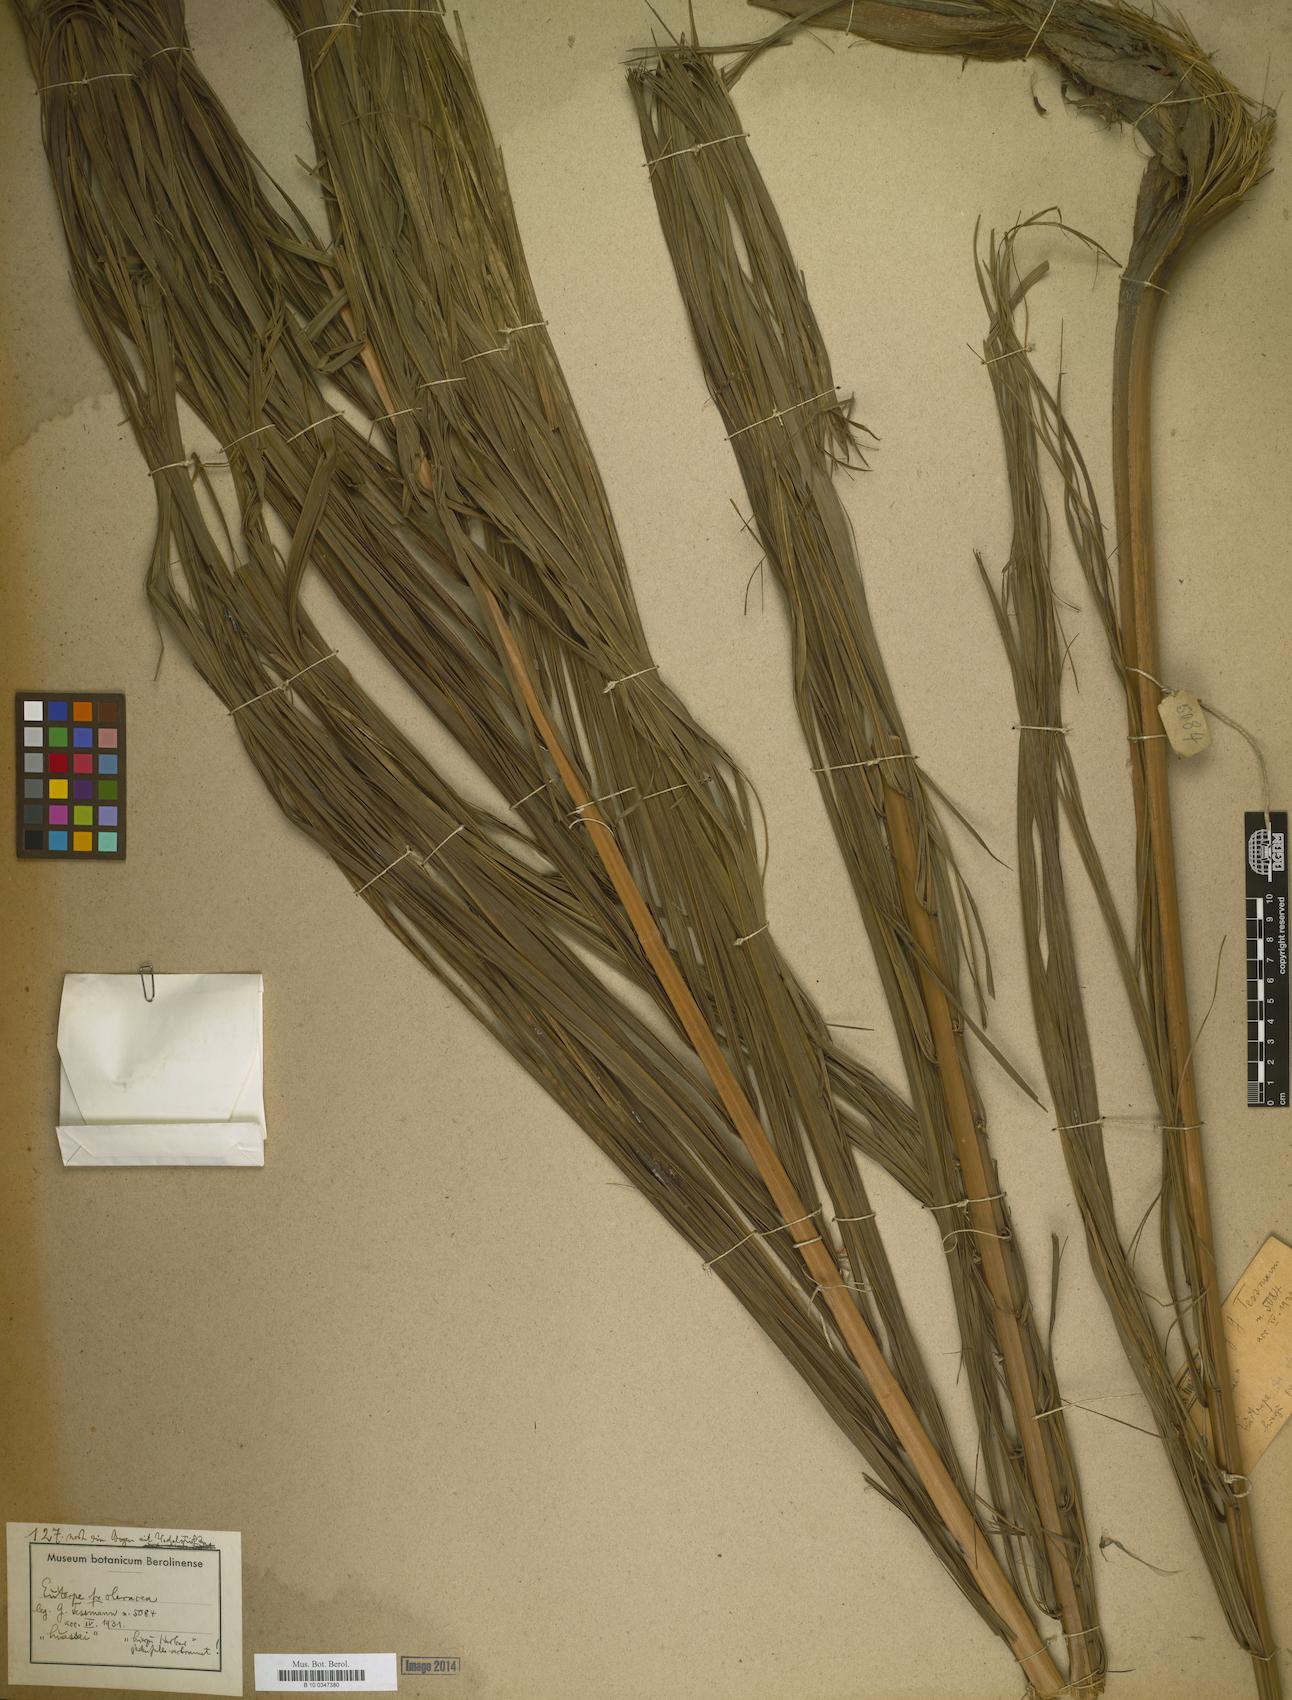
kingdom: Plantae
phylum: Tracheophyta
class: Liliopsida
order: Arecales
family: Arecaceae
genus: Euterpe
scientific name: Euterpe oleracea
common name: Assai palm
